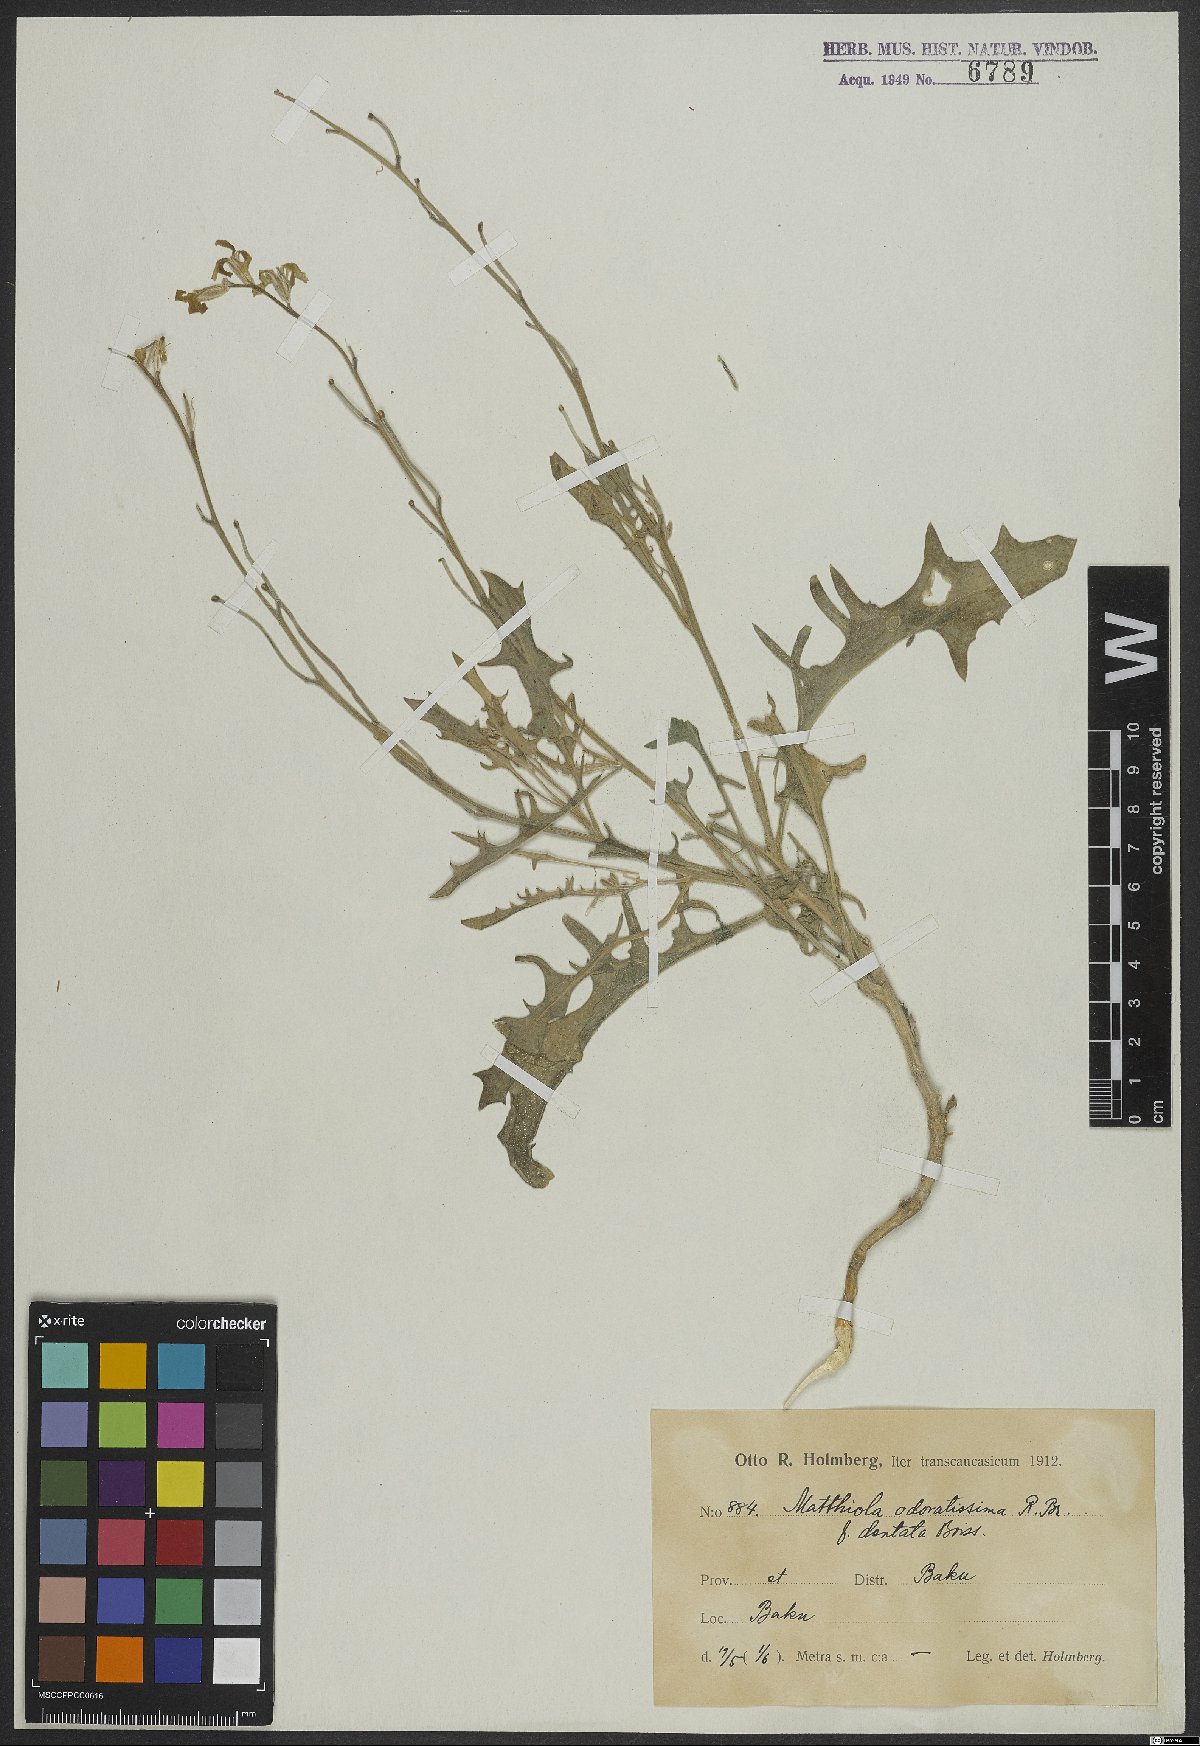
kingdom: Plantae
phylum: Tracheophyta
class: Magnoliopsida
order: Brassicales
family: Brassicaceae
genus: Matthiola
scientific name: Matthiola odoratissima
